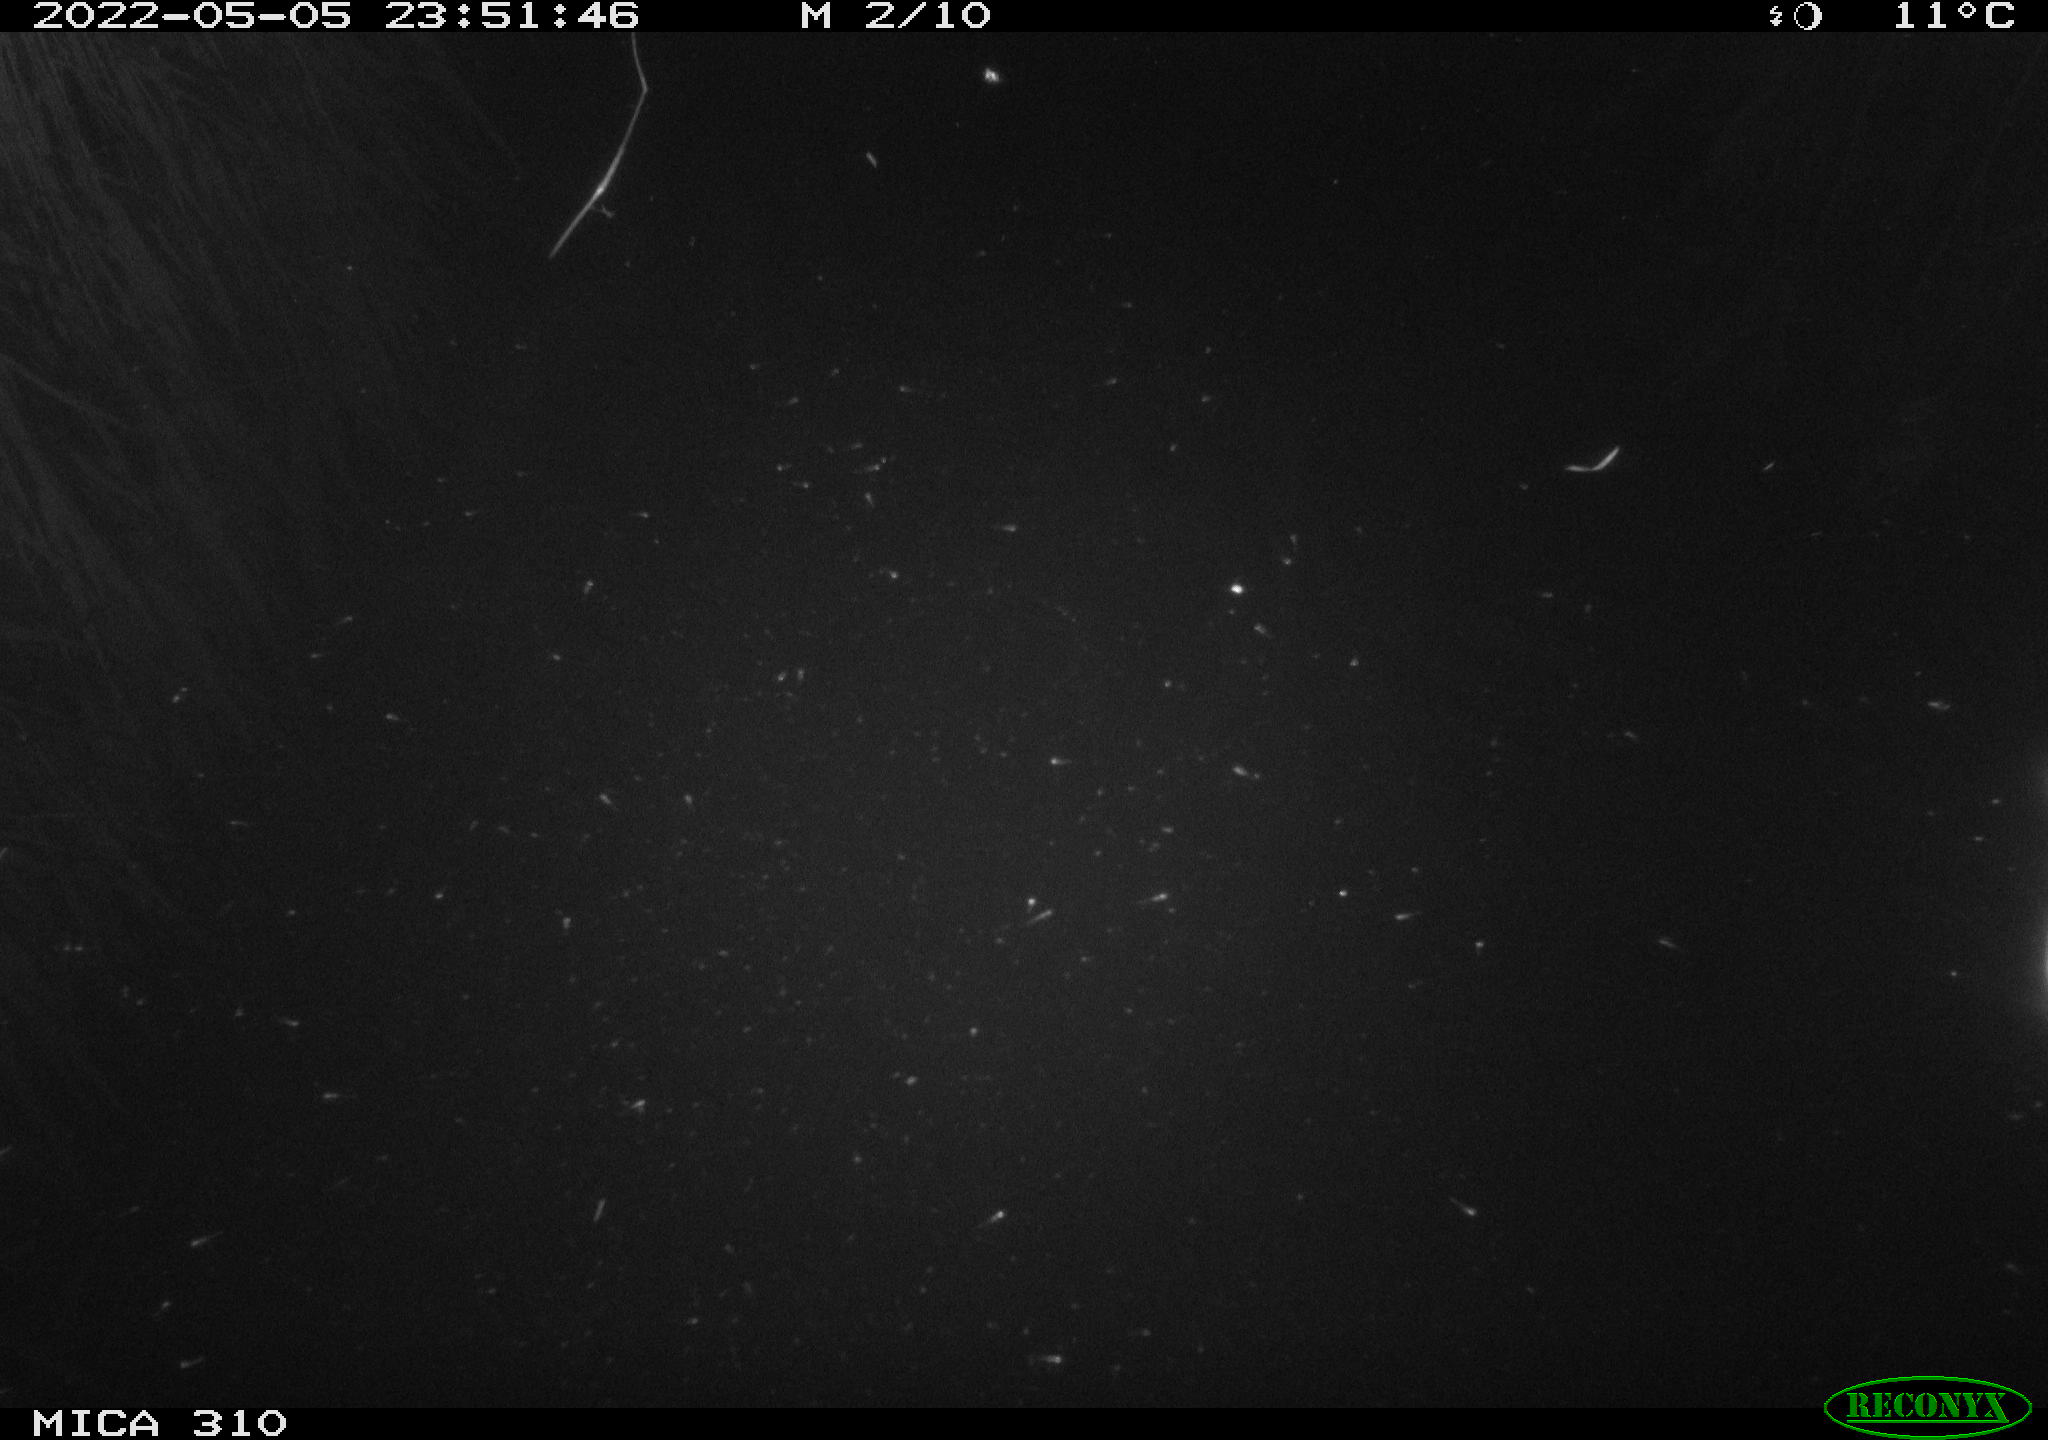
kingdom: Animalia
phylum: Chordata
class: Aves
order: Anseriformes
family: Anatidae
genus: Anas
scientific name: Anas platyrhynchos
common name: Mallard
